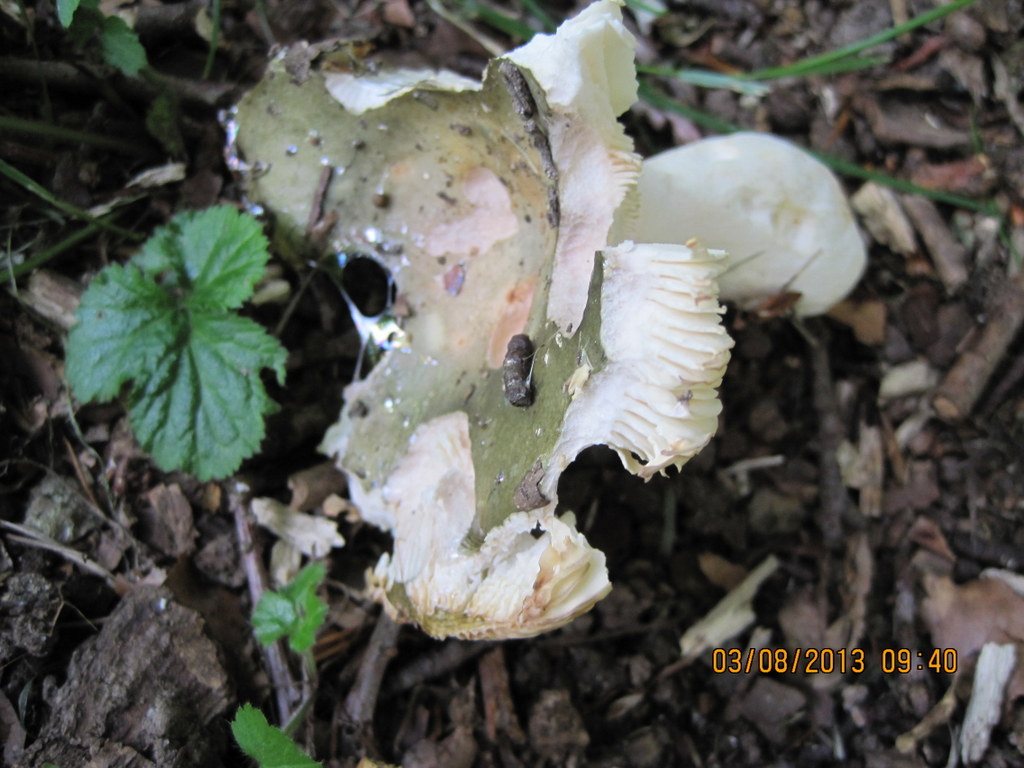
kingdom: Fungi
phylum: Basidiomycota
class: Agaricomycetes
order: Russulales
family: Russulaceae
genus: Russula
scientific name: Russula heterophylla
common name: gaffelbladet skørhat
